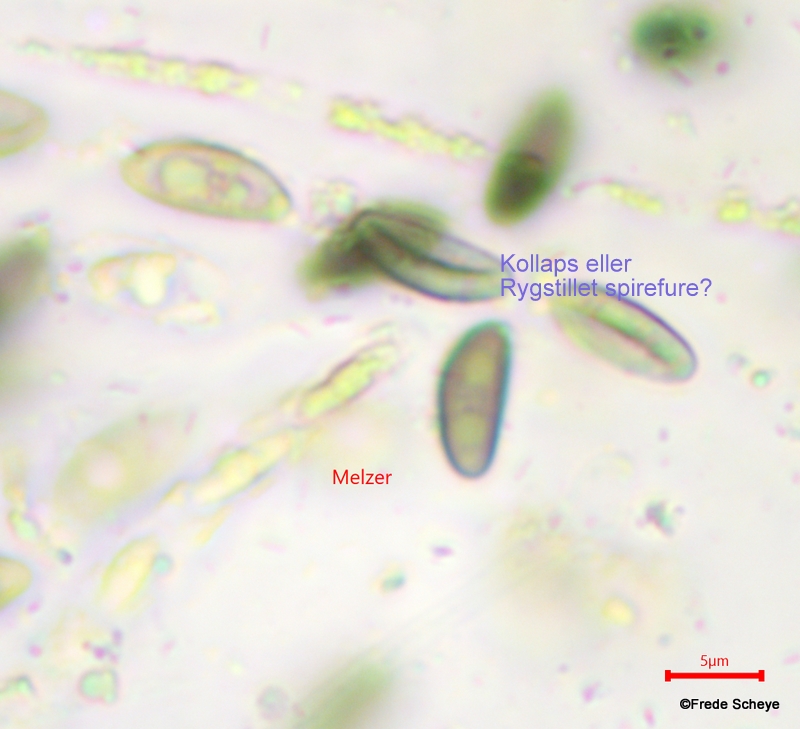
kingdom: Fungi
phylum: Ascomycota
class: Sordariomycetes
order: Xylariales
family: Hypoxylaceae
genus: Jackrogersella
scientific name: Jackrogersella cohaerens
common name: sammenflydende kulbær
